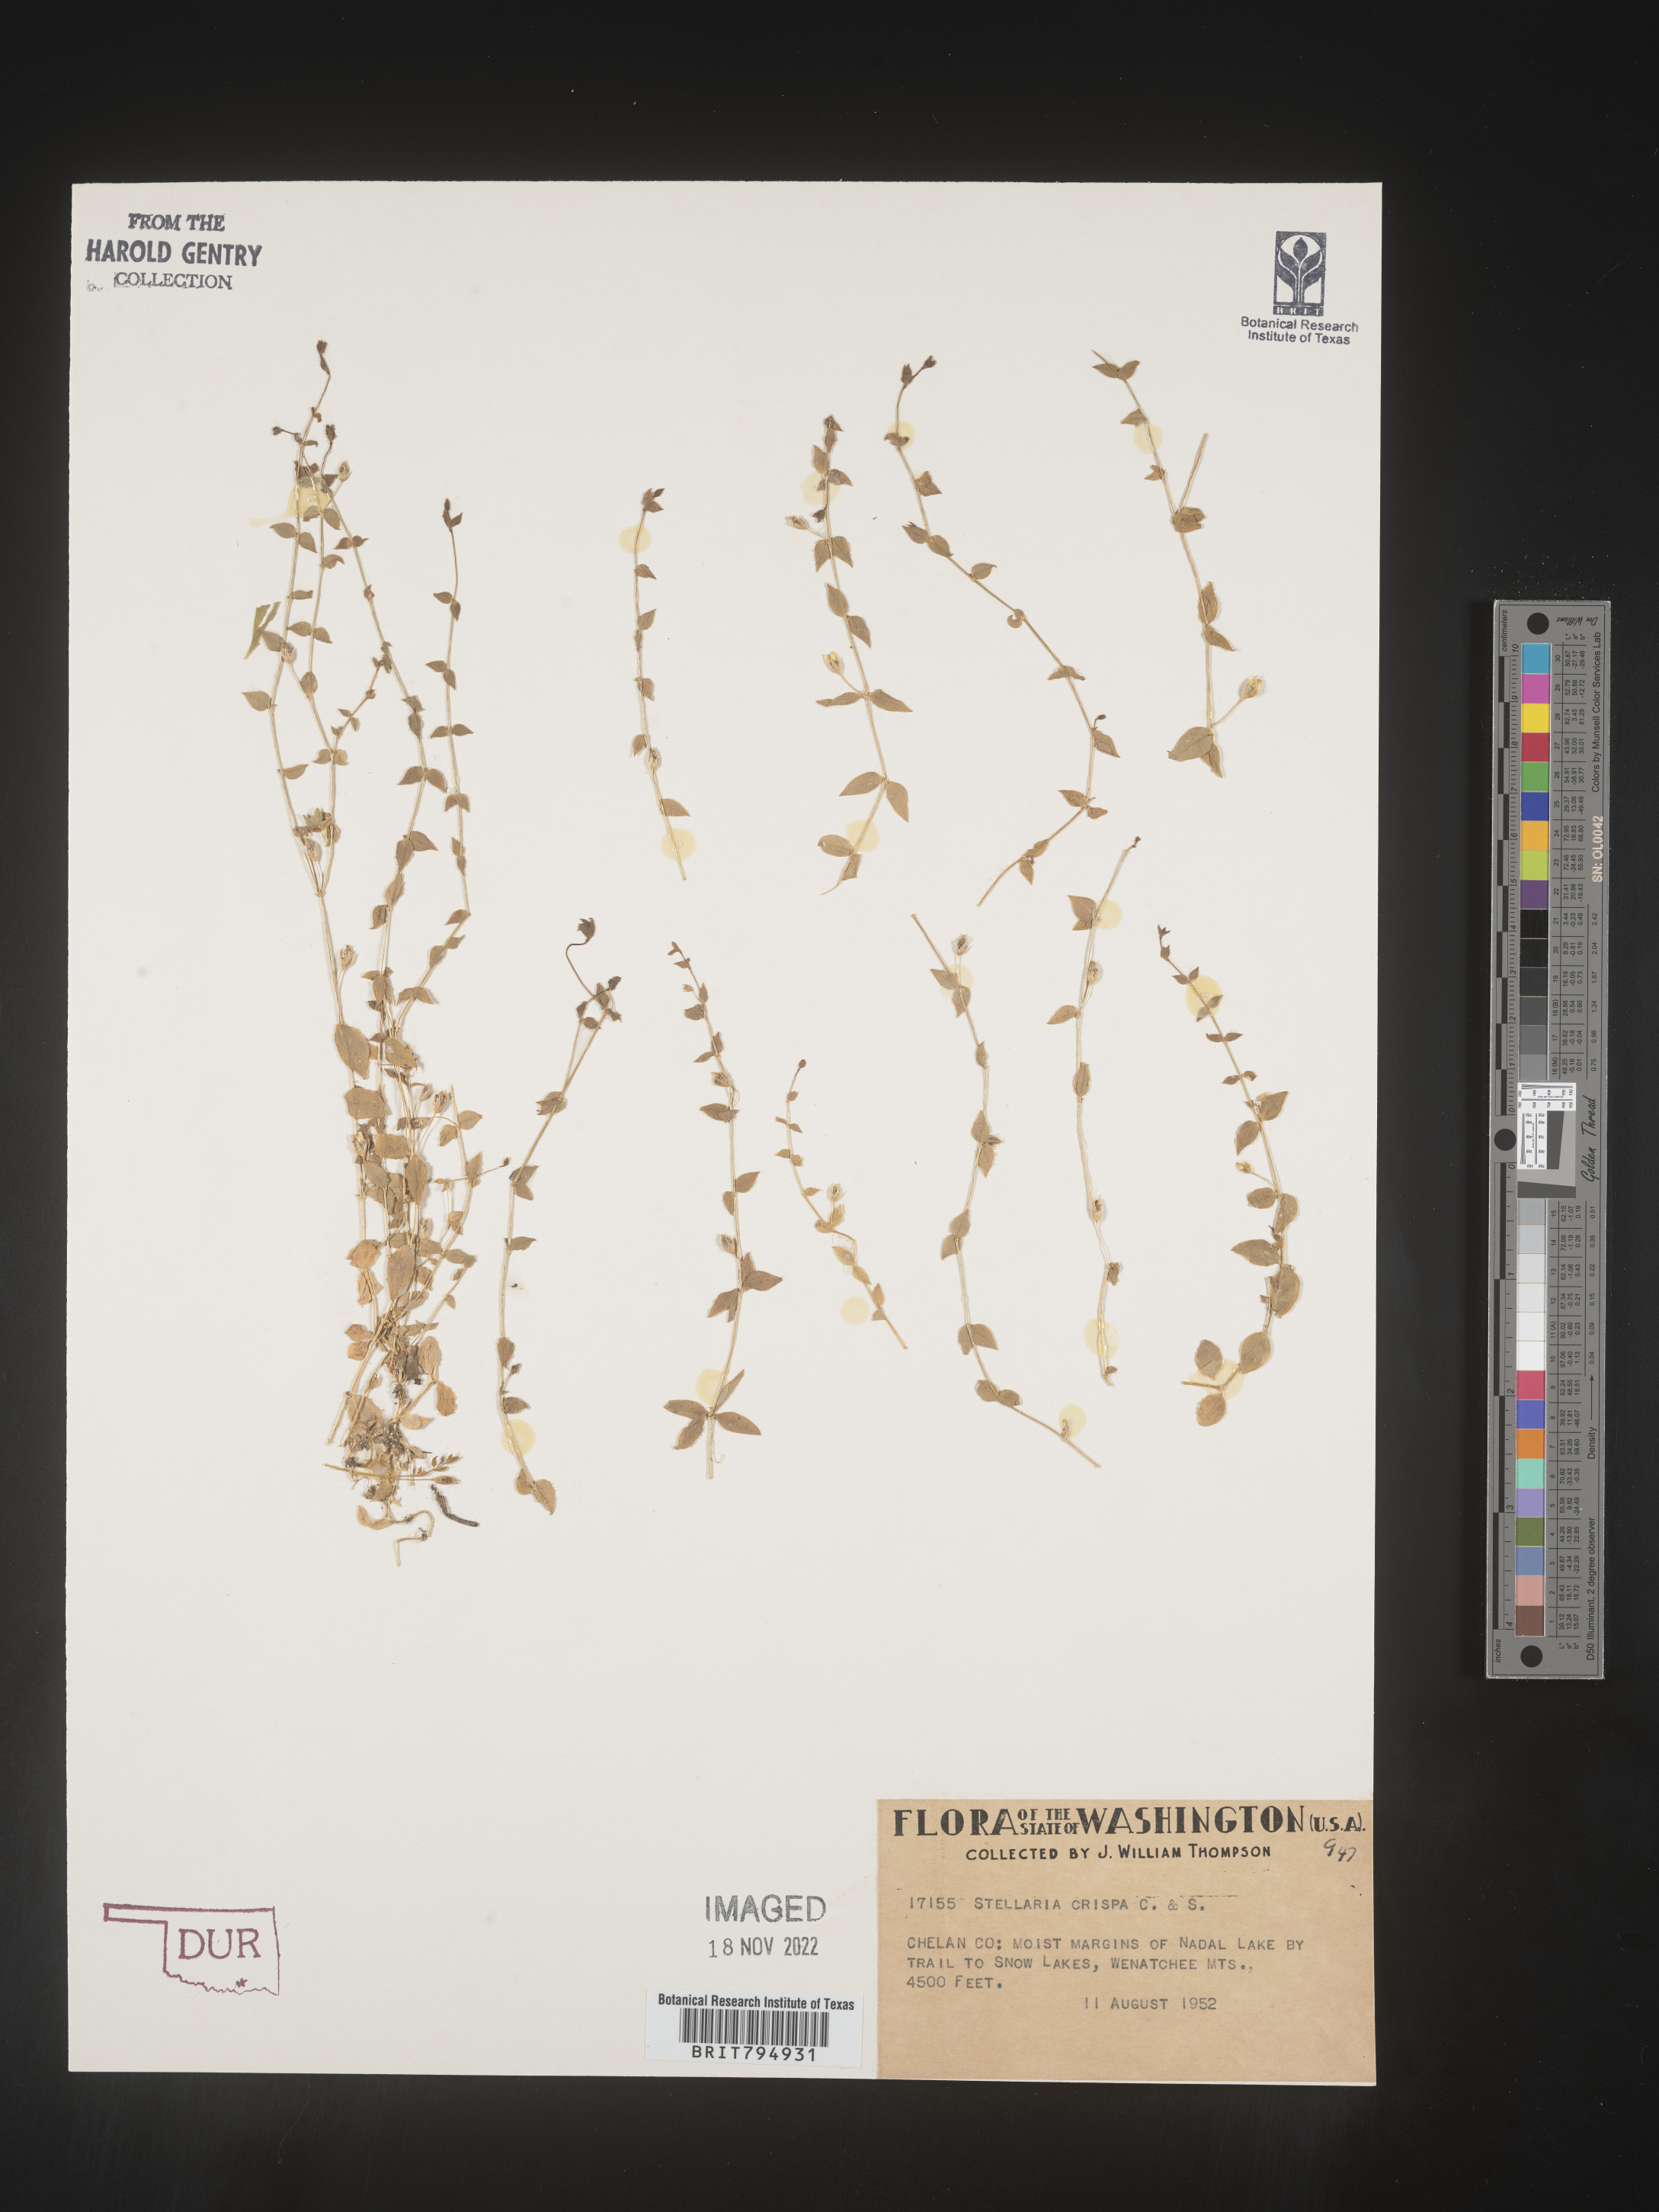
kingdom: Plantae
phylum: Tracheophyta
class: Magnoliopsida
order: Caryophyllales
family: Caryophyllaceae
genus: Stellaria
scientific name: Stellaria crispa
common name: Crimped stitchwort
